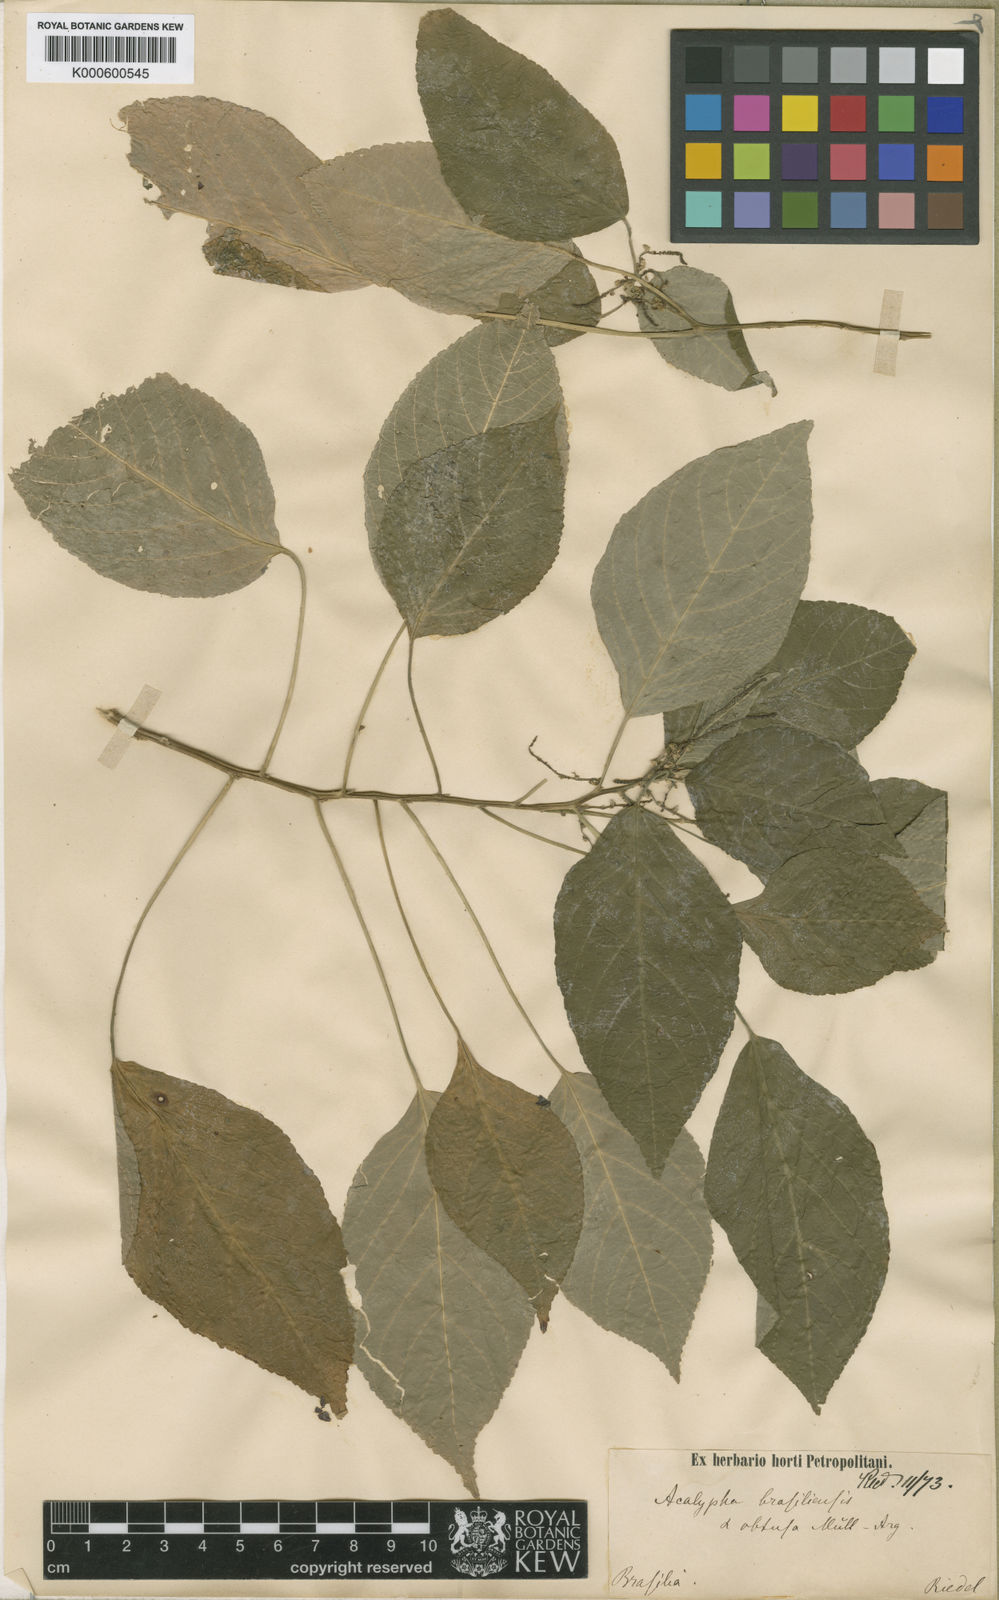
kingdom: Plantae
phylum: Tracheophyta
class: Magnoliopsida
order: Malpighiales
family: Euphorbiaceae
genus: Acalypha
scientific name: Acalypha
